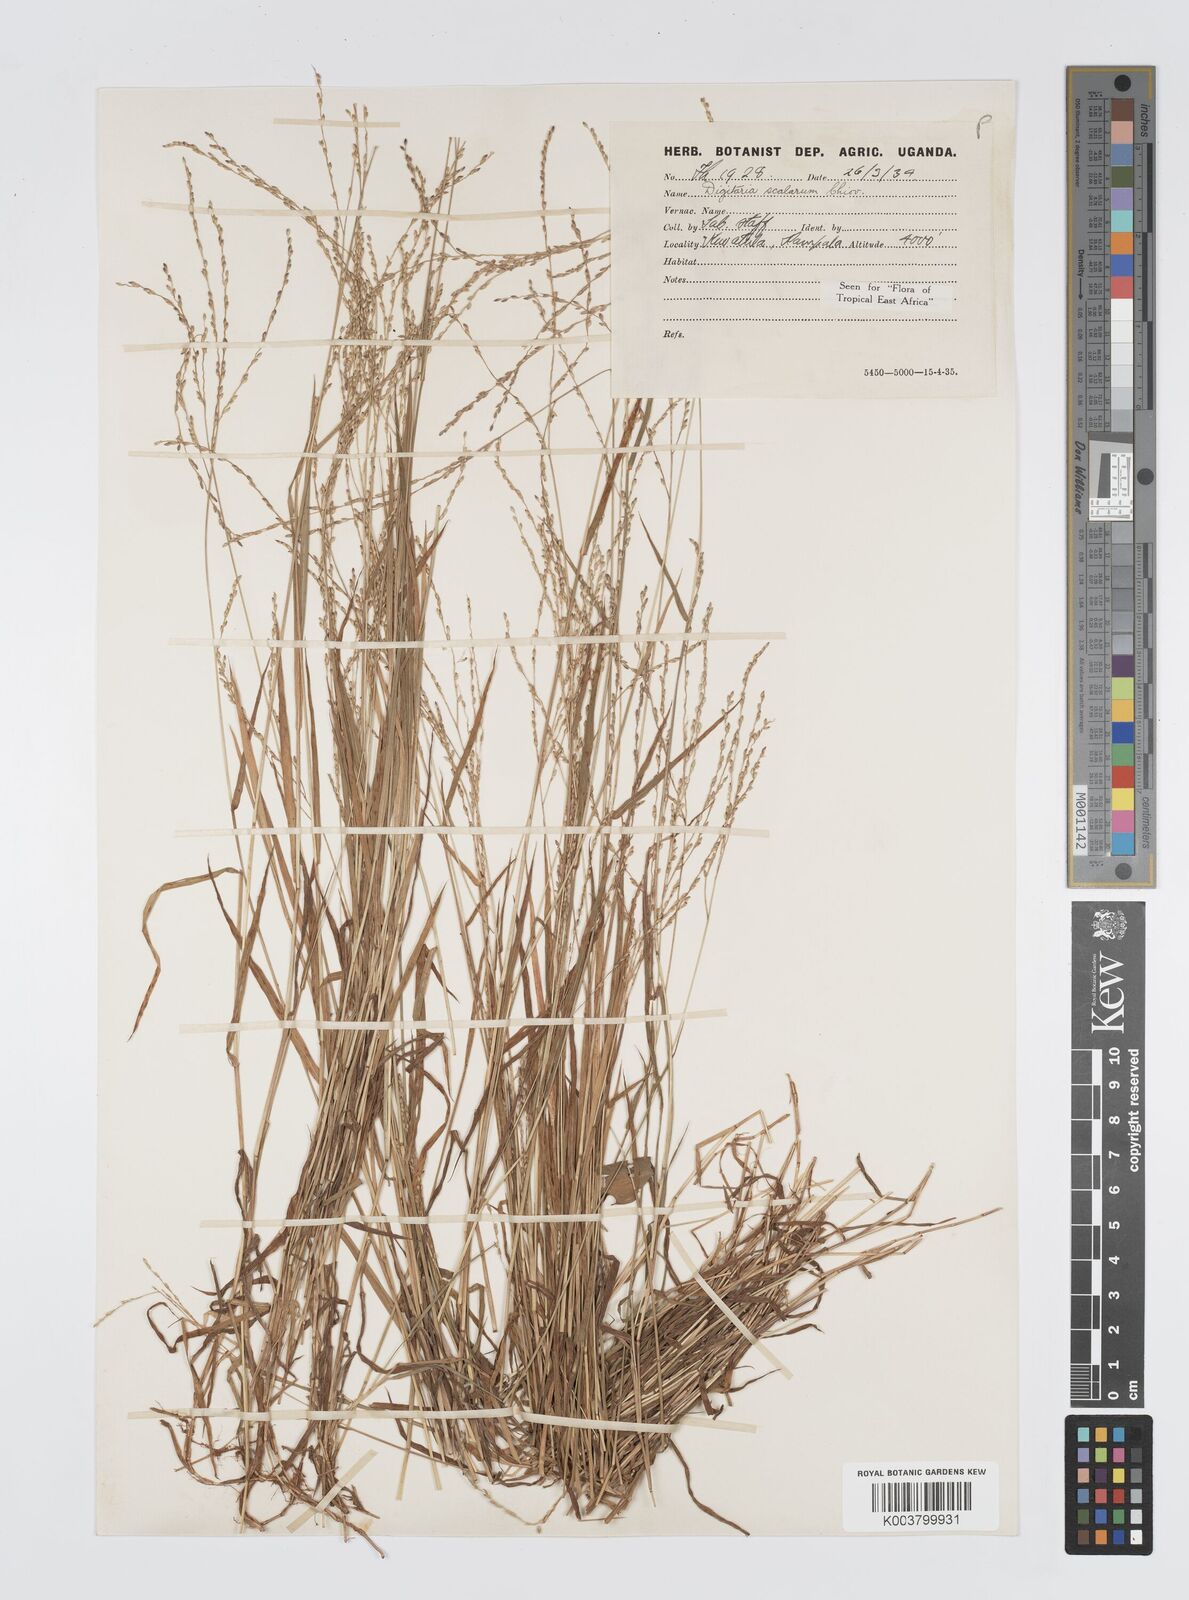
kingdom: Plantae
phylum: Tracheophyta
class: Liliopsida
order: Poales
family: Poaceae
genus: Digitaria
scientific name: Digitaria abyssinica
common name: African couchgrass
